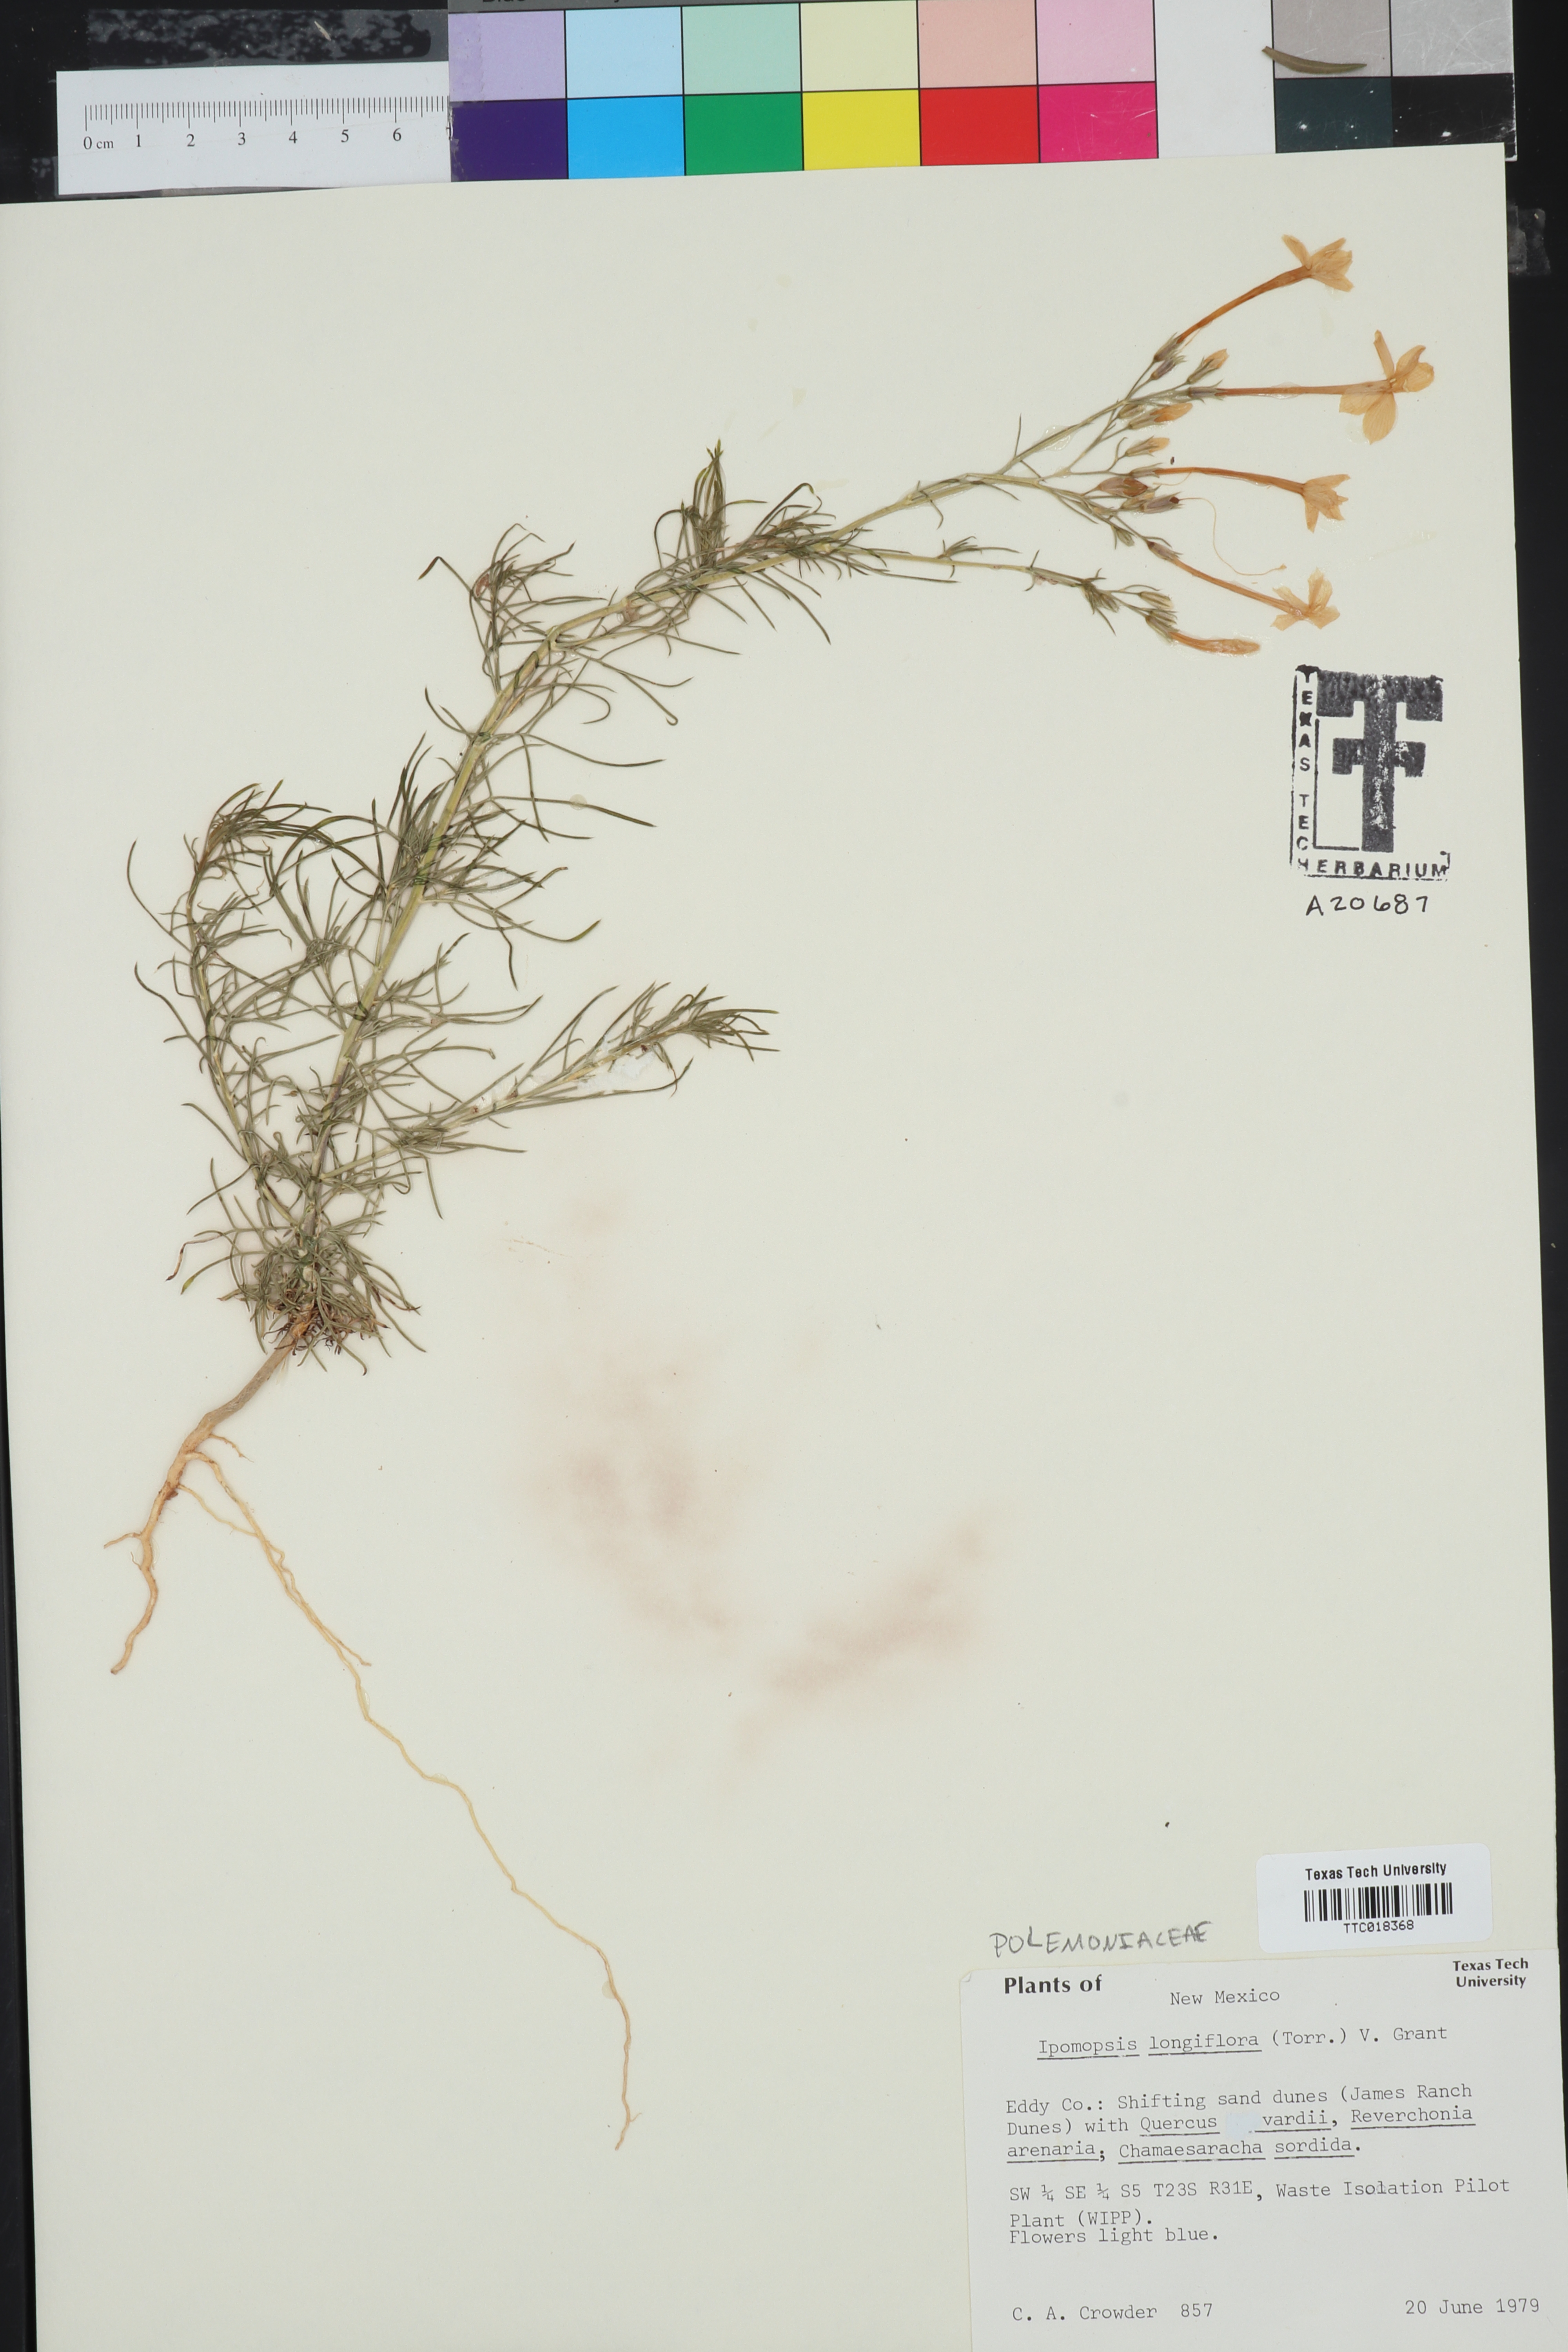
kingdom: Plantae
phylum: Tracheophyta
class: Magnoliopsida
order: Ericales
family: Polemoniaceae
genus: Ipomopsis
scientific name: Ipomopsis longiflora
